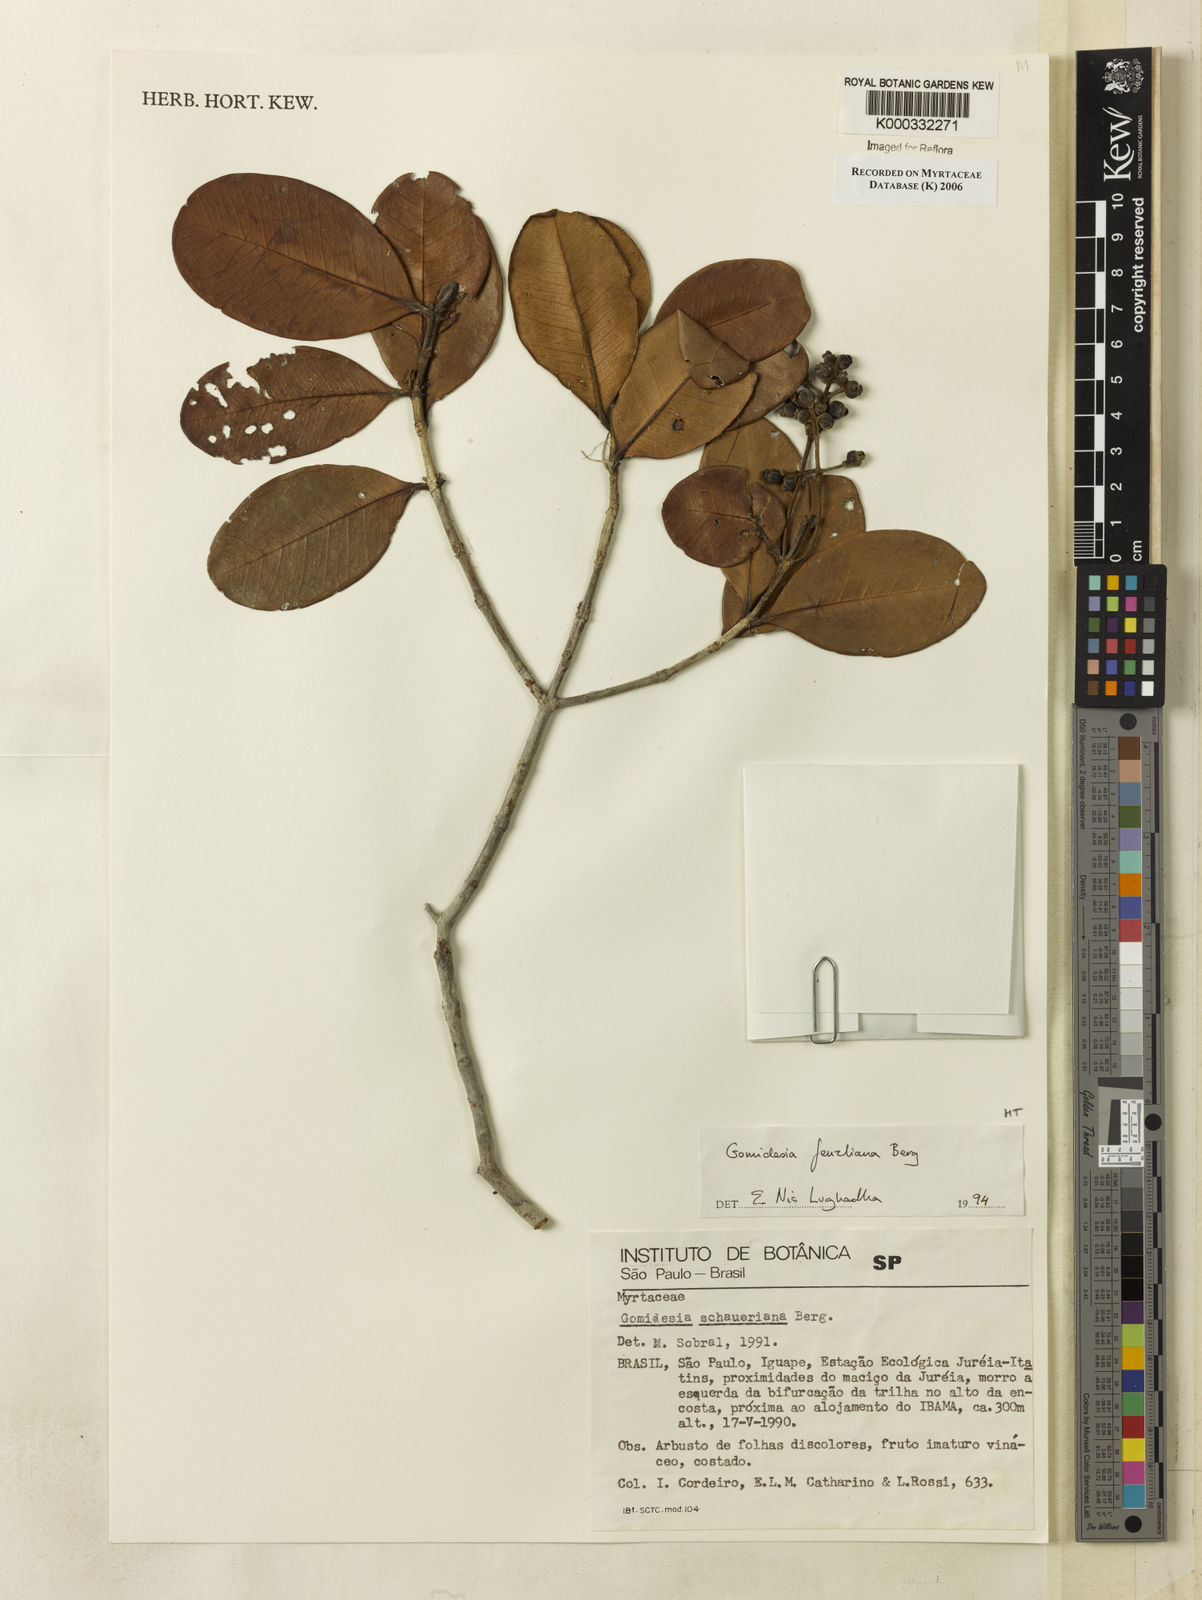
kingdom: Plantae
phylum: Tracheophyta
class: Magnoliopsida
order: Myrtales
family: Myrtaceae
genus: Myrcia
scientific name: Myrcia ilheosensis
